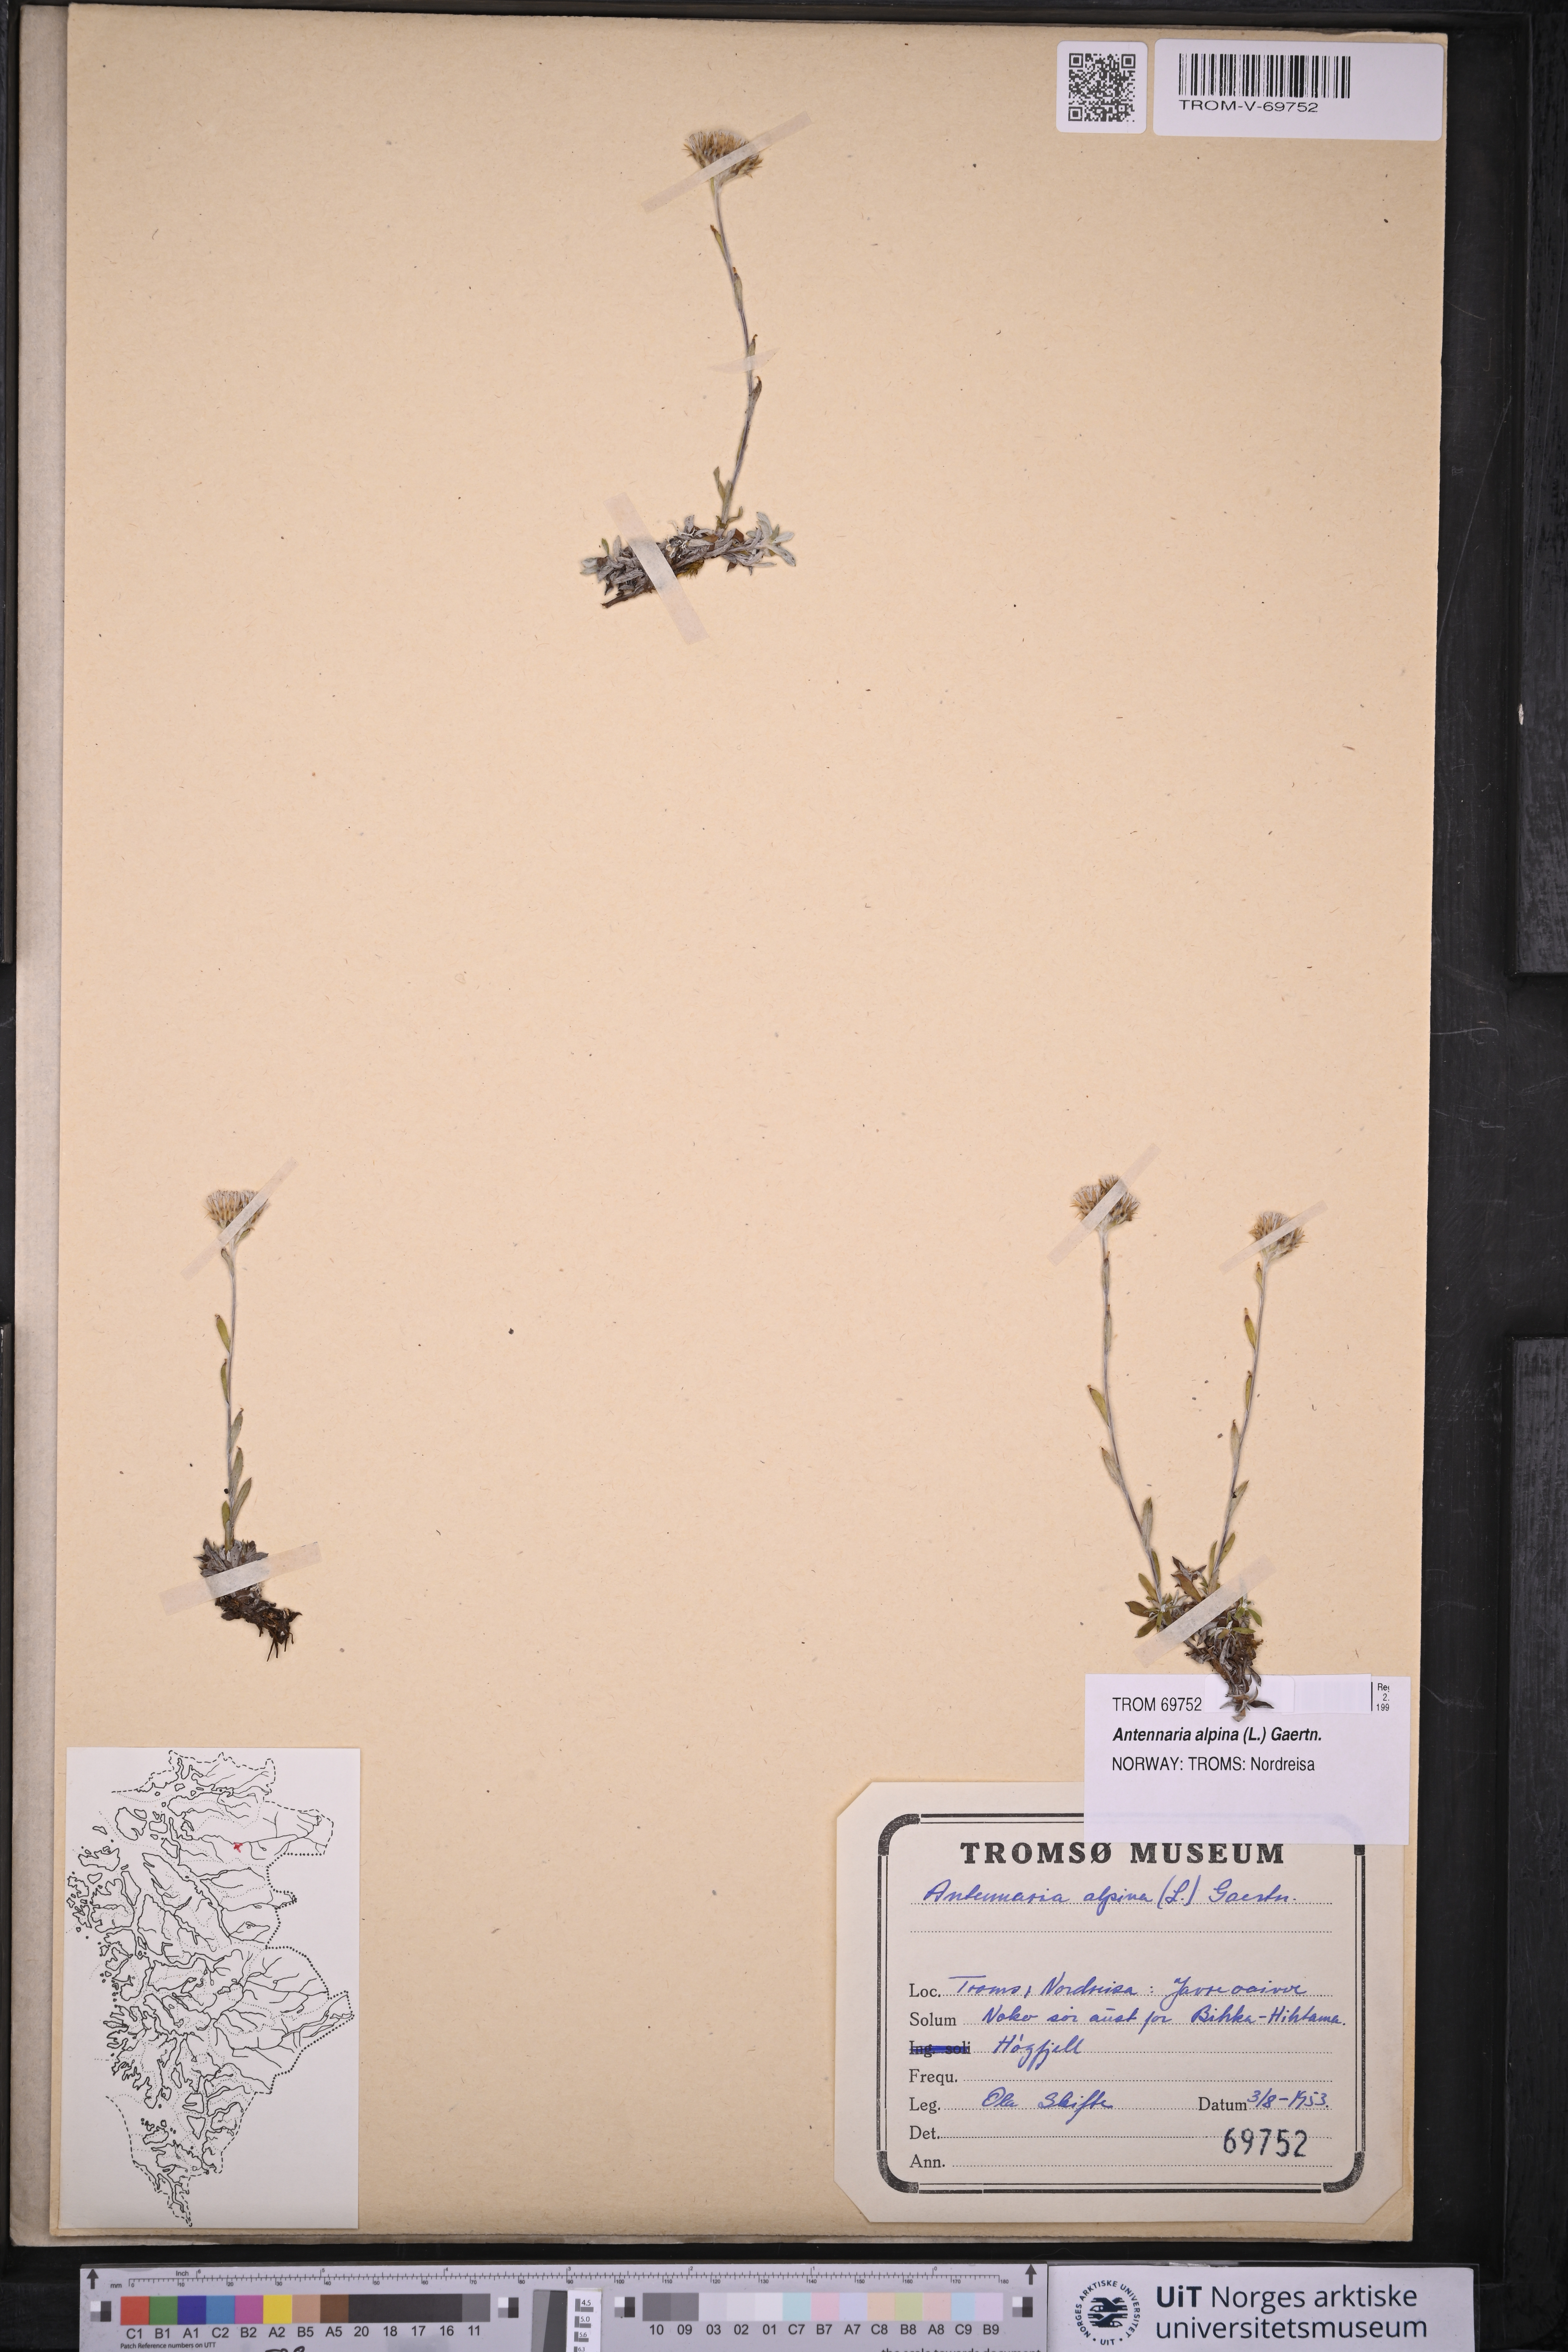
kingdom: Plantae
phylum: Tracheophyta
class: Magnoliopsida
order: Asterales
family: Asteraceae
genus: Antennaria
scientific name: Antennaria alpina
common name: Alpine pussytoes
